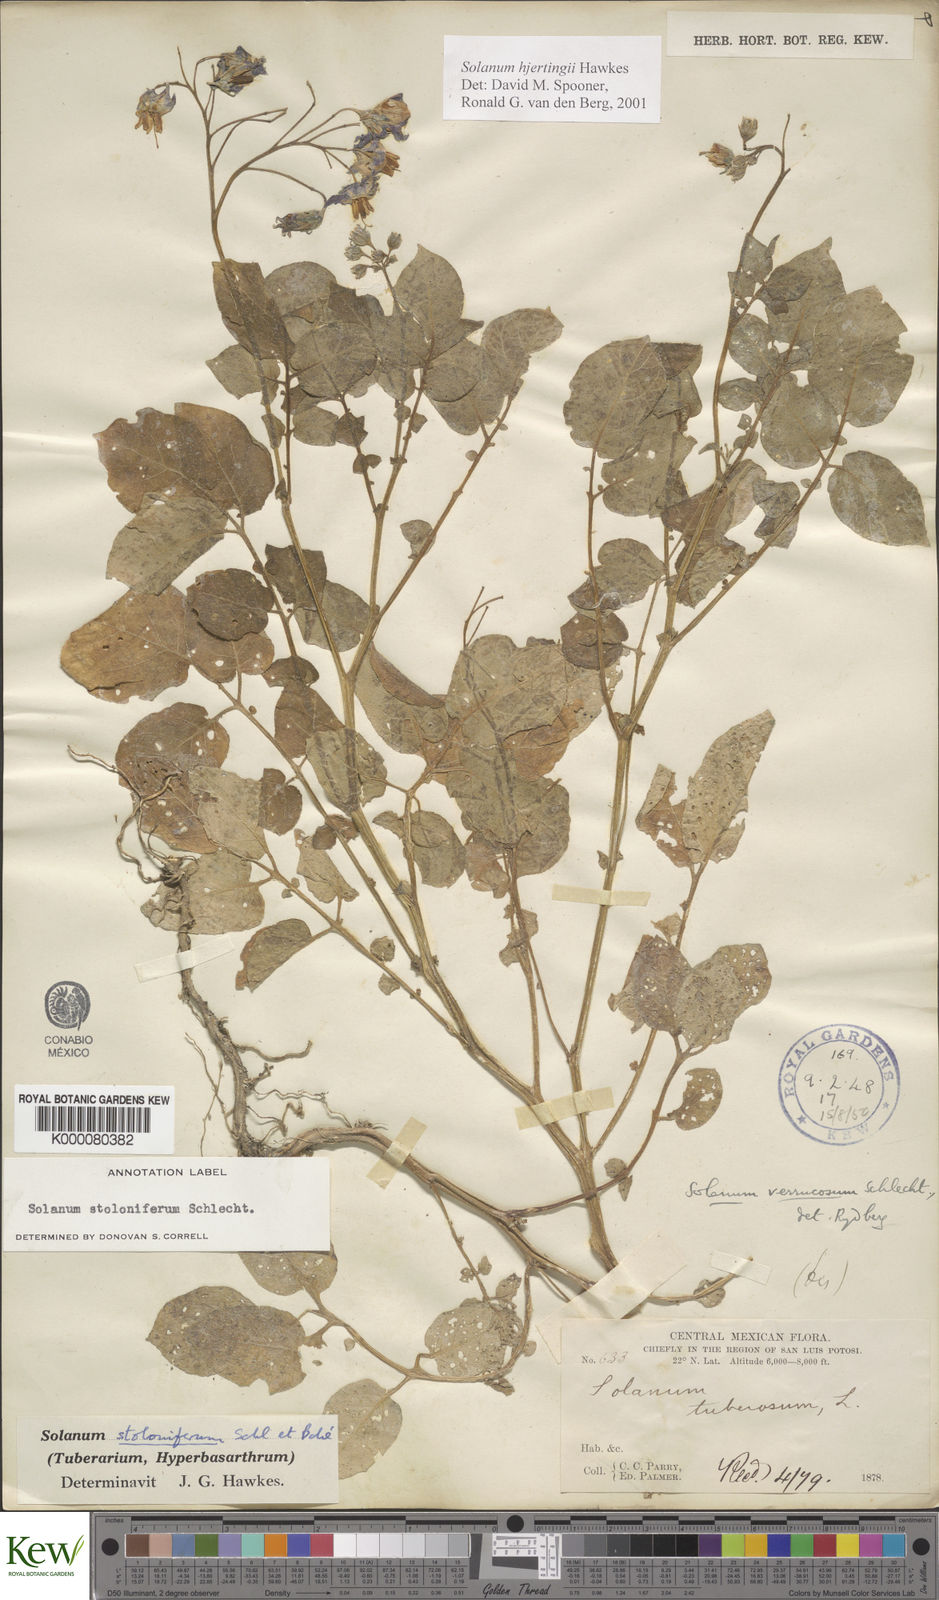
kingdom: Plantae
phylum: Tracheophyta
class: Magnoliopsida
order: Solanales
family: Solanaceae
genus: Solanum
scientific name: Solanum hjertingii
